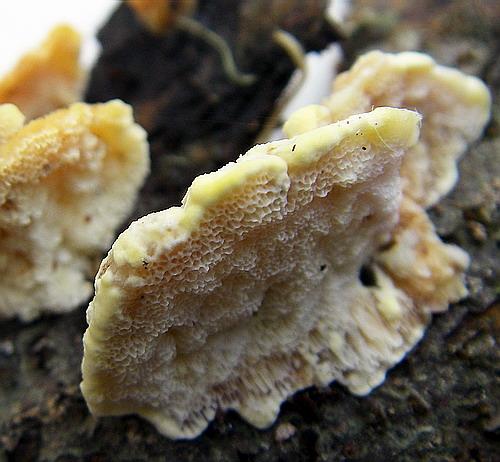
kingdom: Fungi
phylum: Basidiomycota
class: Agaricomycetes
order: Polyporales
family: Steccherinaceae
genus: Antrodiella
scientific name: Antrodiella serpula
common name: gulrandet elastikporesvamp
